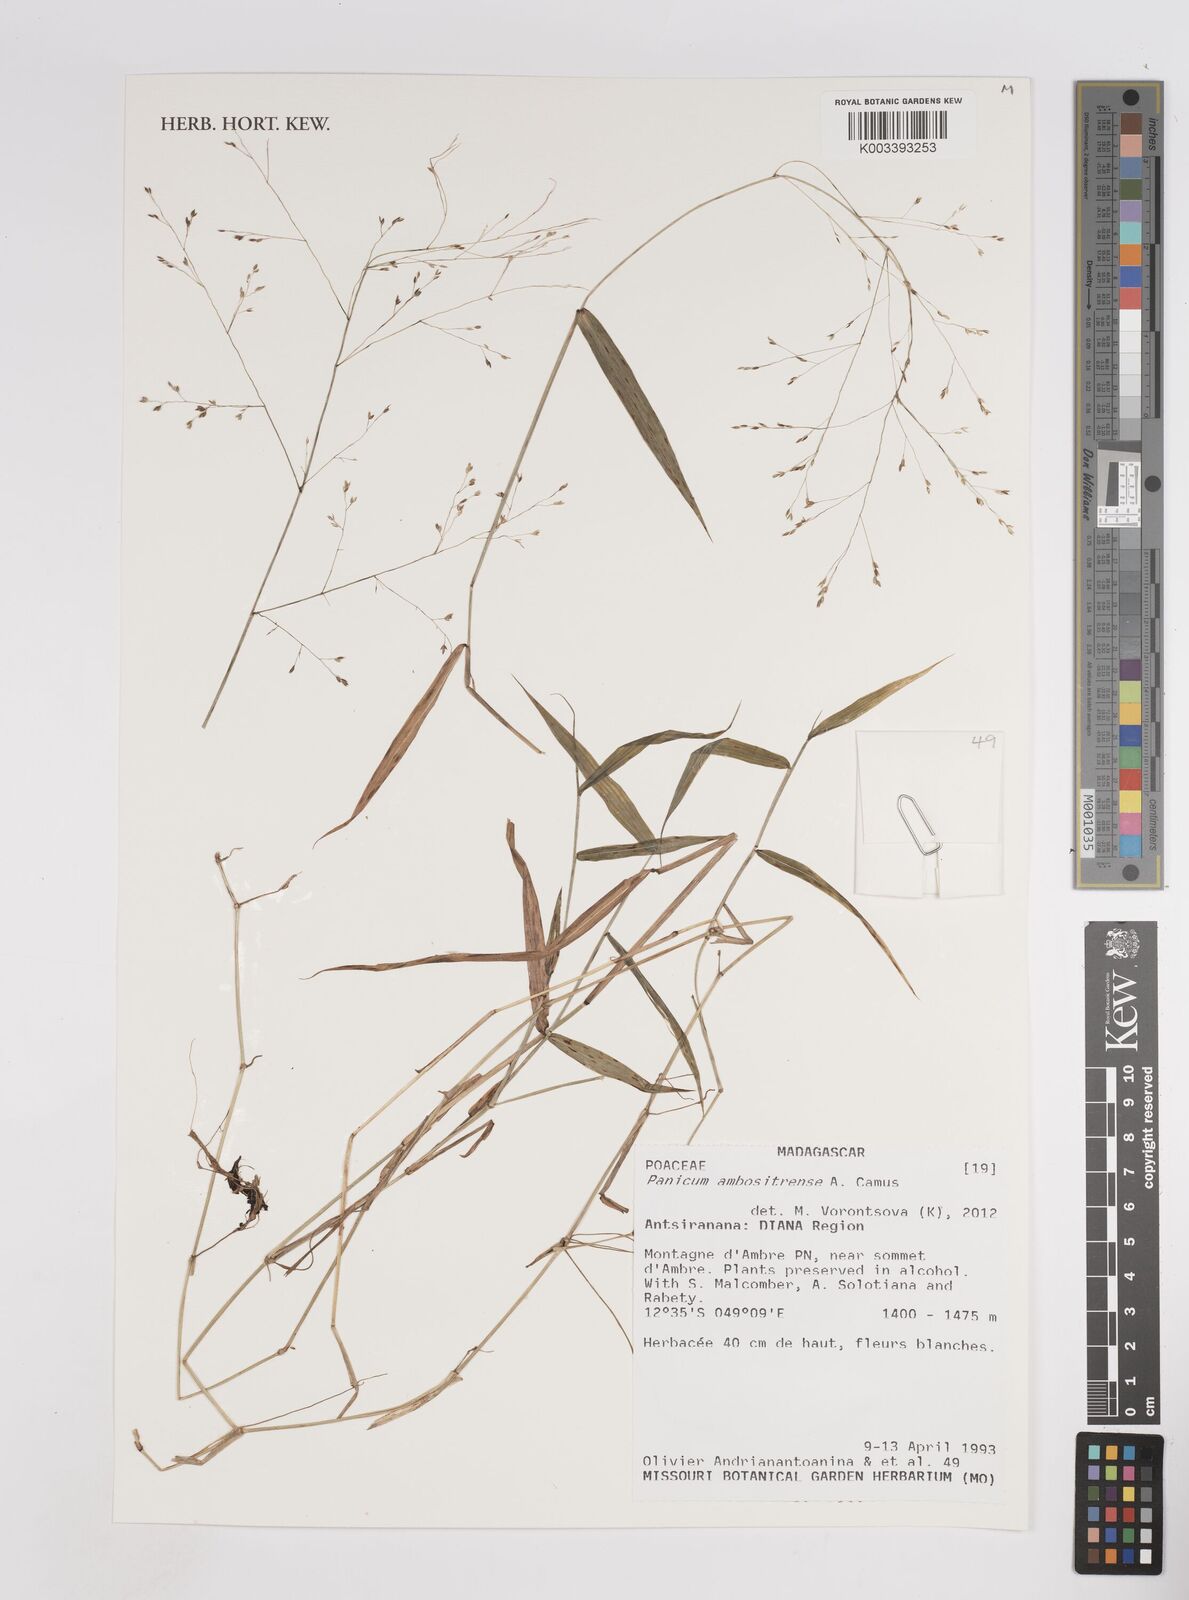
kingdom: Plantae
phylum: Tracheophyta
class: Liliopsida
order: Poales
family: Poaceae
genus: Panicum
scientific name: Panicum aequinerve
